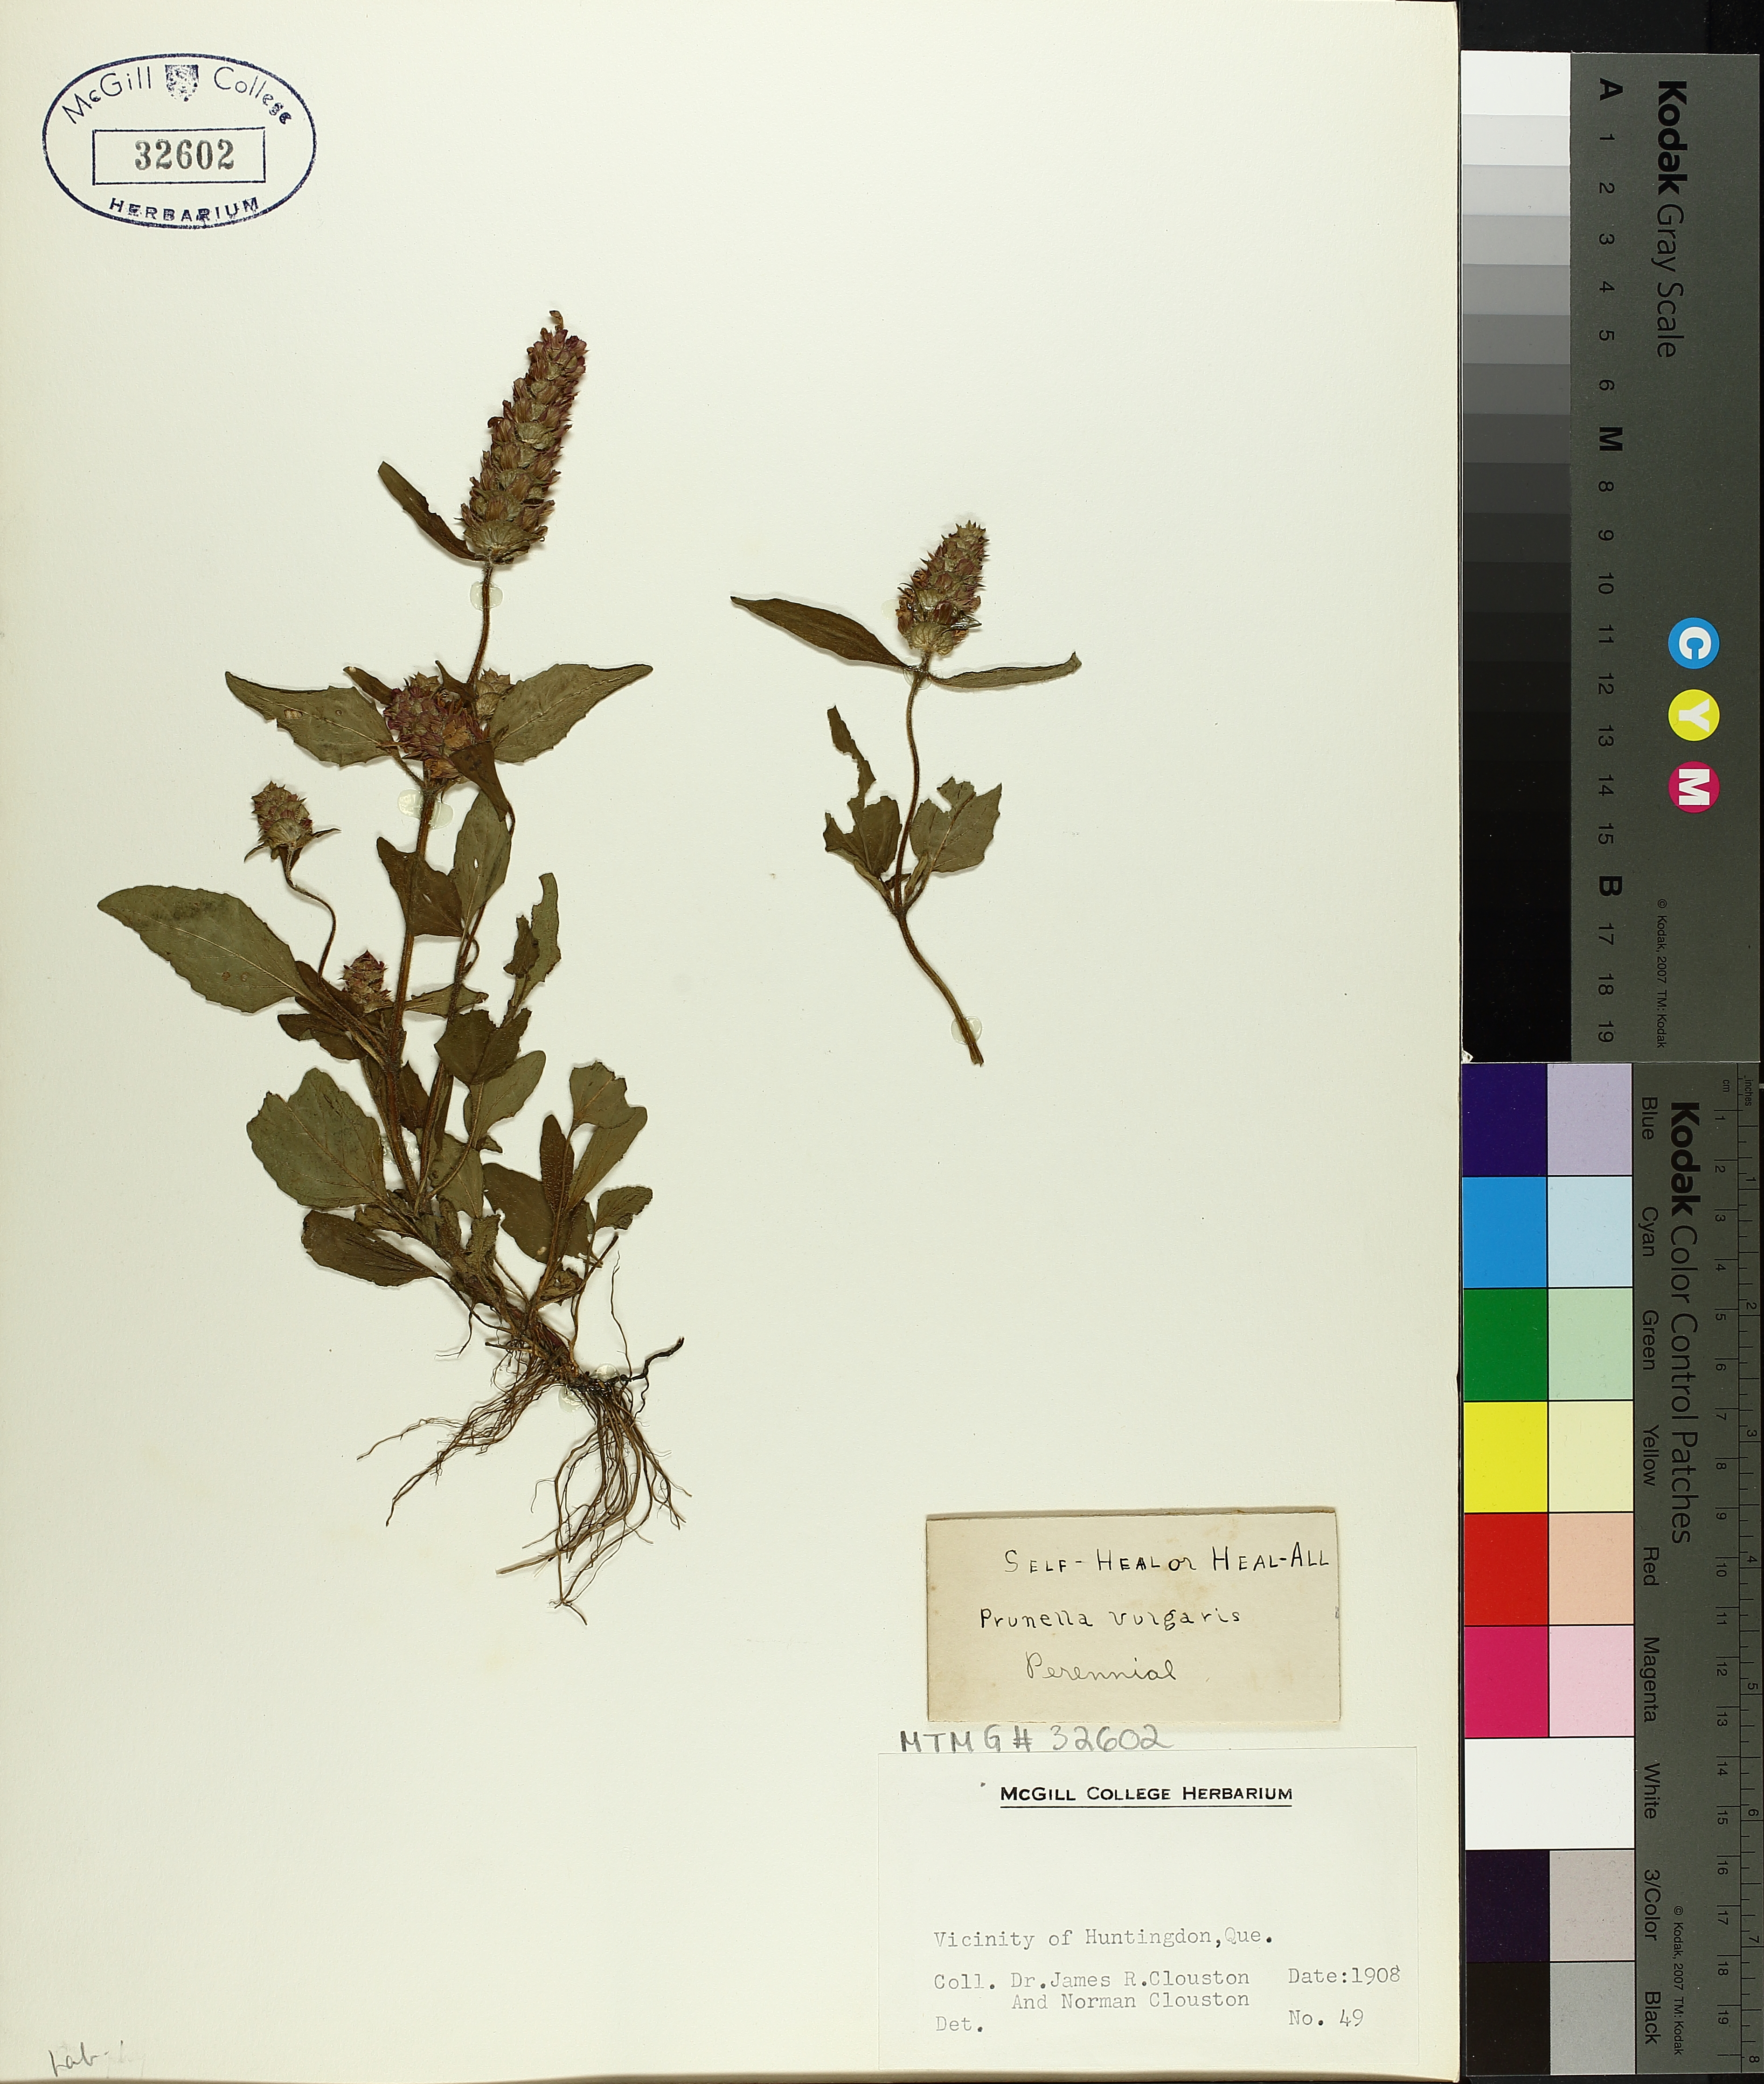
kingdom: Plantae
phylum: Tracheophyta
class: Magnoliopsida
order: Lamiales
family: Lamiaceae
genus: Prunella
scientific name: Prunella vulgaris
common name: Heal-all
